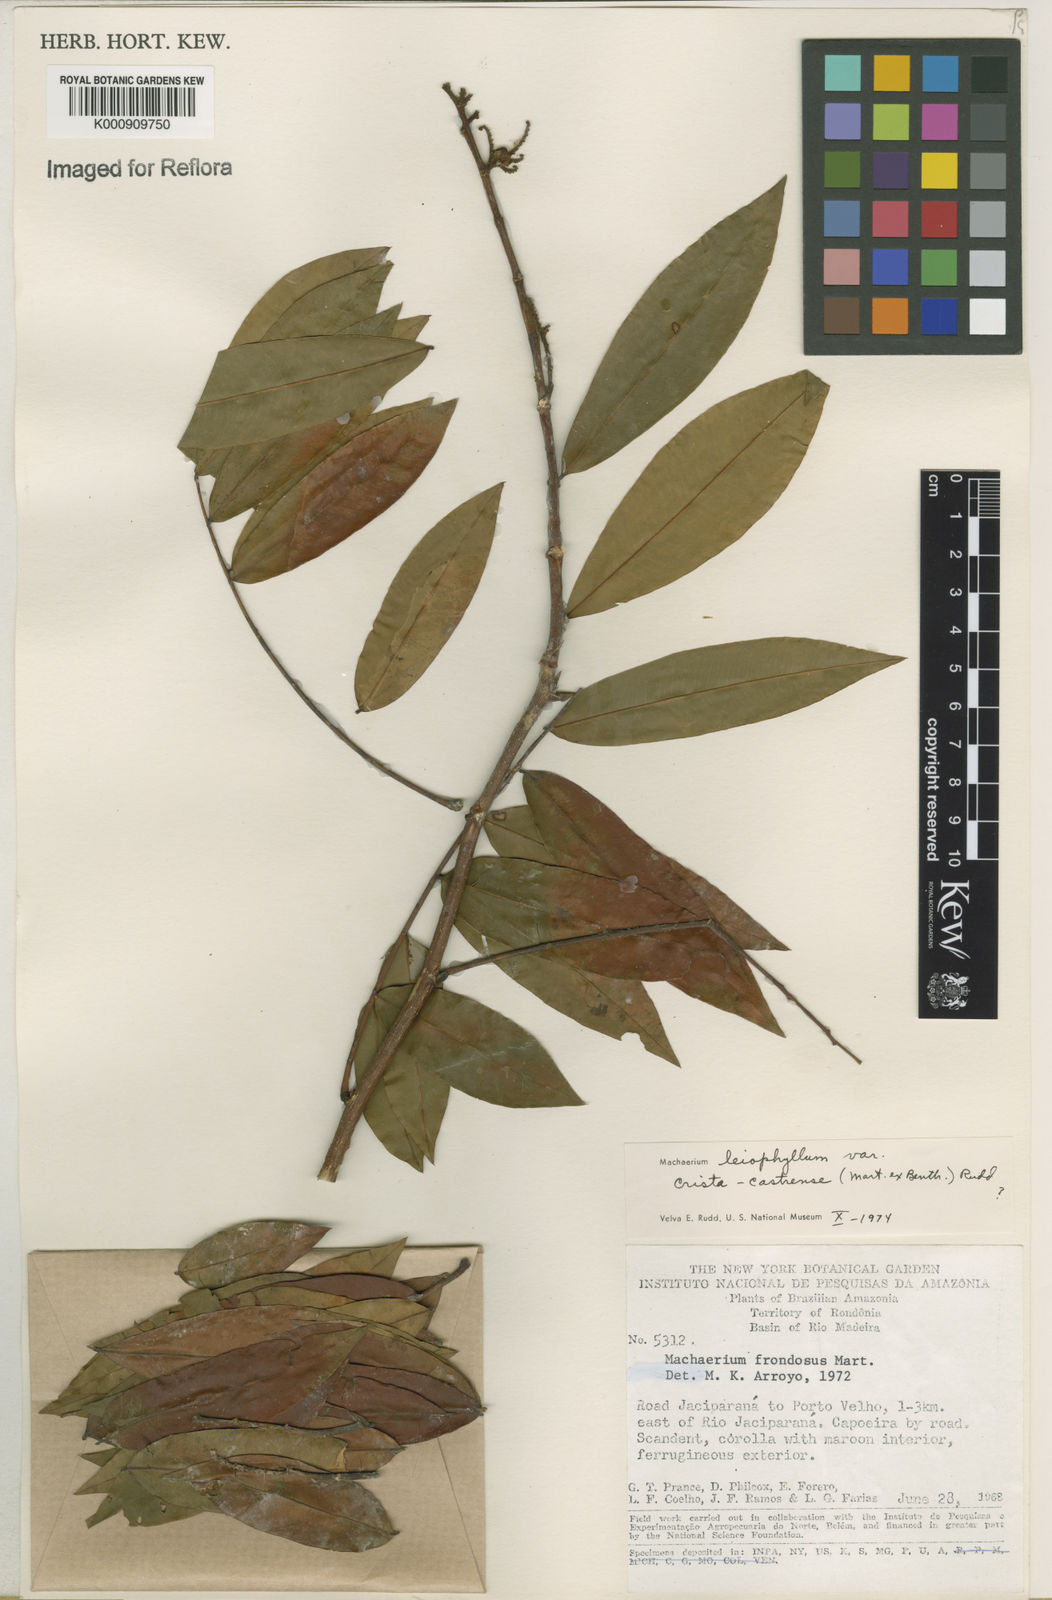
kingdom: Plantae
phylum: Tracheophyta
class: Magnoliopsida
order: Fabales
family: Fabaceae
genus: Machaerium
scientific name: Machaerium leiophyllum
